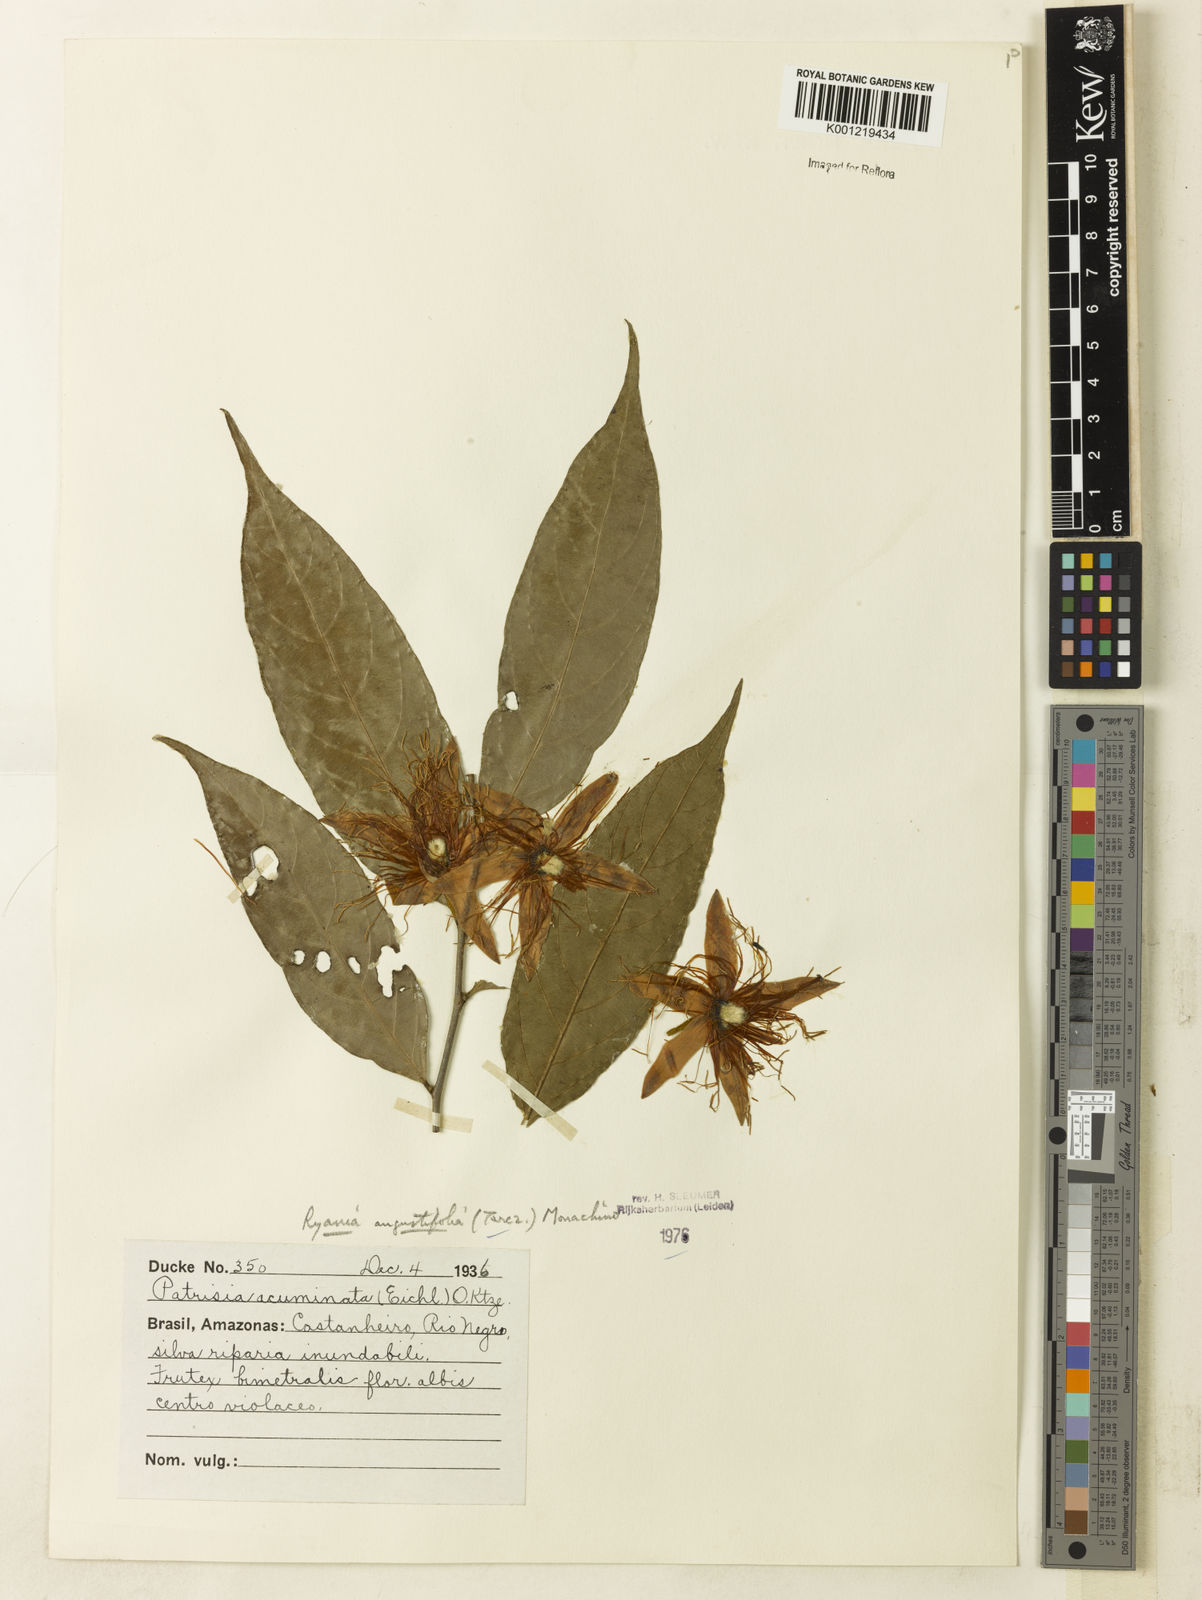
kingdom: Plantae
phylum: Tracheophyta
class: Magnoliopsida
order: Malpighiales
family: Salicaceae
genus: Ryania
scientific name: Ryania angustifolia
